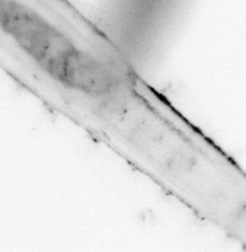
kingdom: Animalia
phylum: Chaetognatha
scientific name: Chaetognatha
